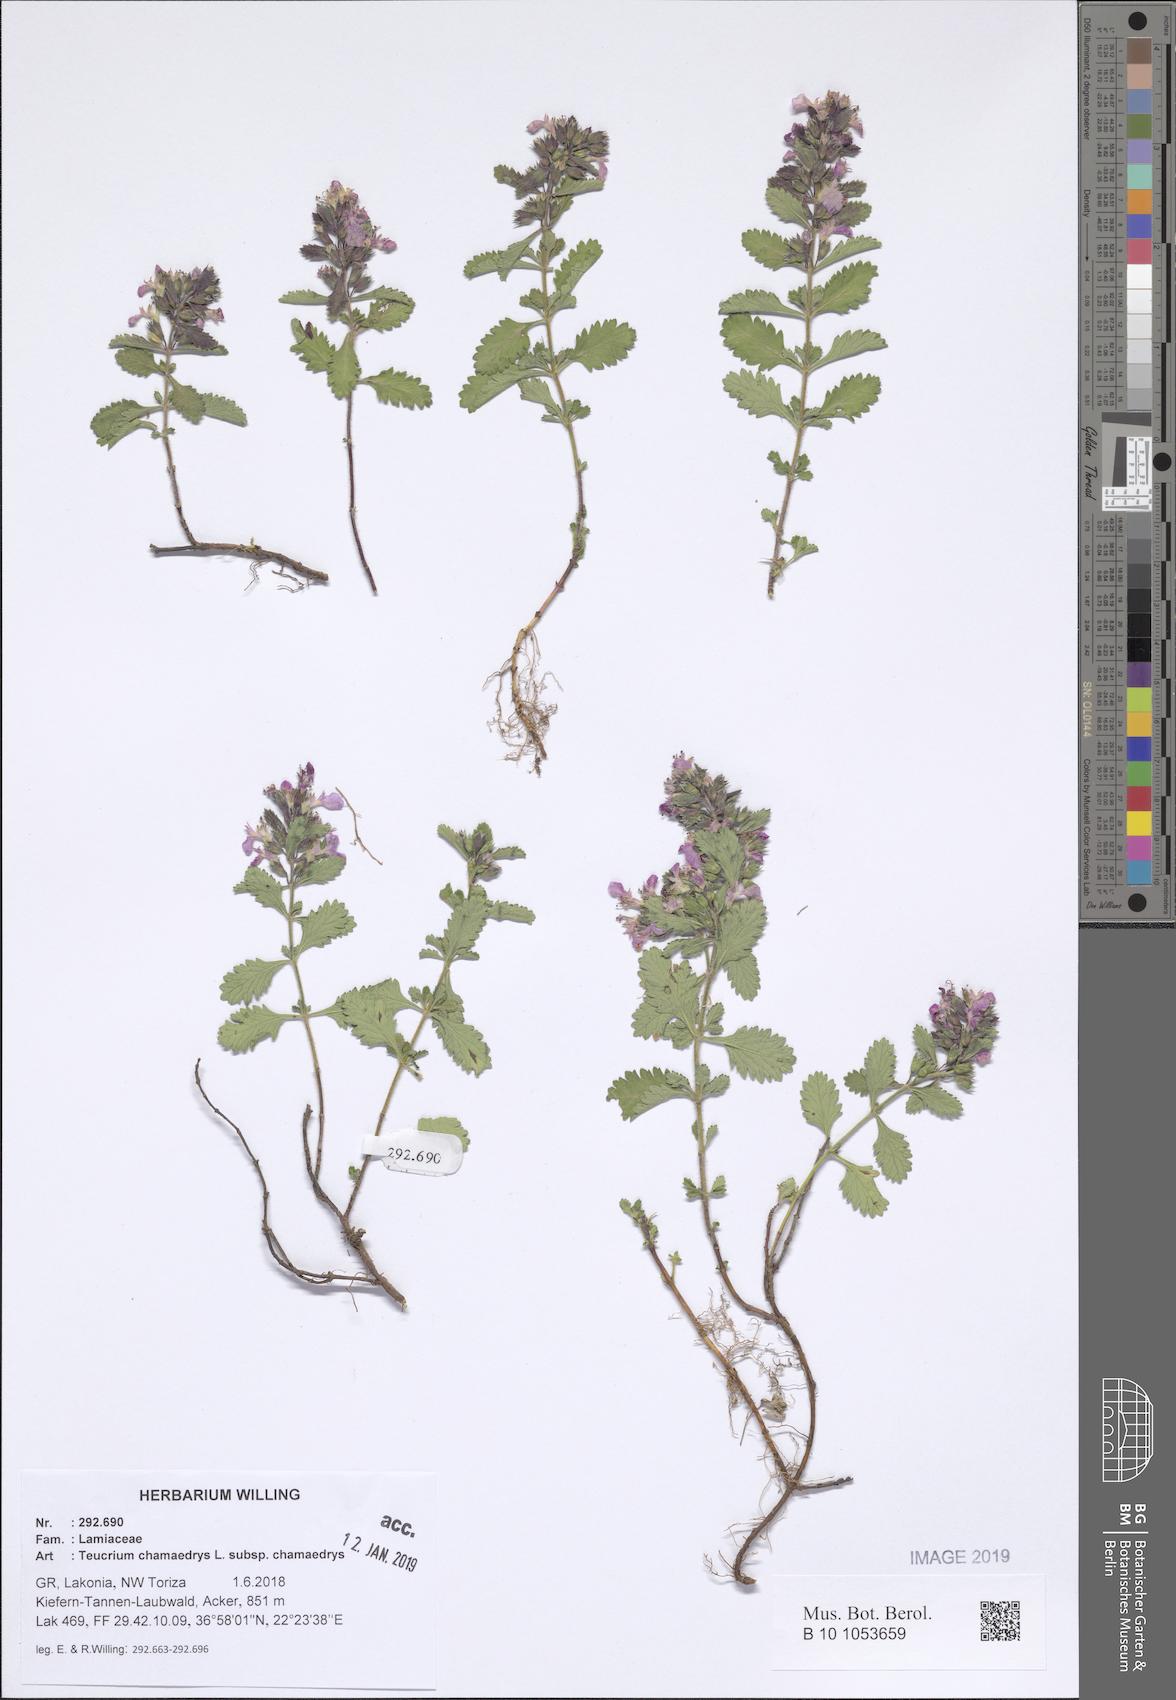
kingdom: Plantae
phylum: Tracheophyta
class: Magnoliopsida
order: Lamiales
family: Lamiaceae
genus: Teucrium
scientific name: Teucrium chamaedrys
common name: Wall germander
